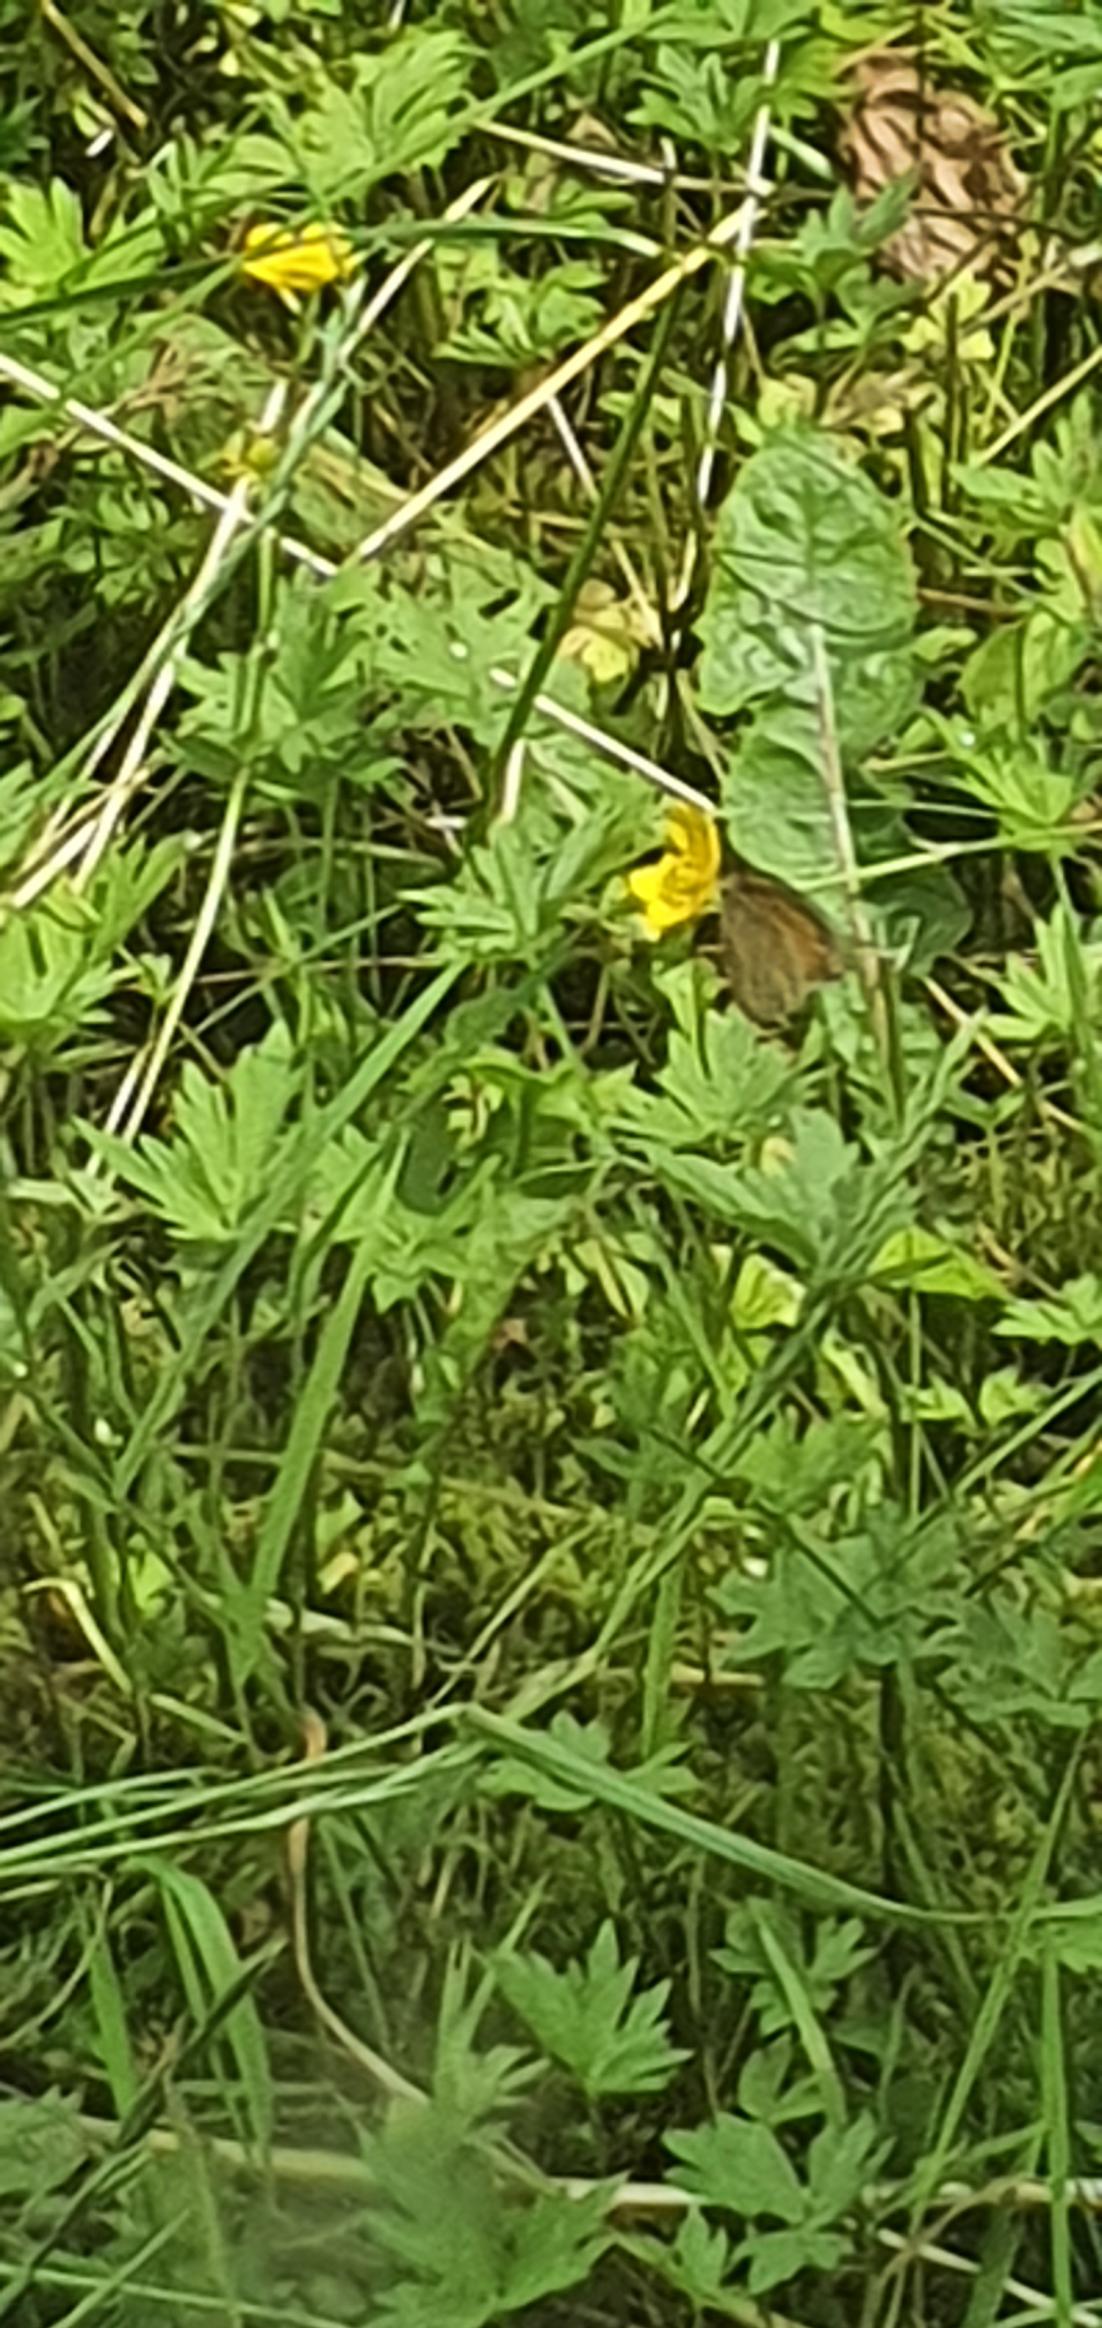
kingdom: Animalia
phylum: Arthropoda
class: Insecta
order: Lepidoptera
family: Nymphalidae
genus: Maniola
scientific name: Maniola jurtina
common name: Græsrandøje
